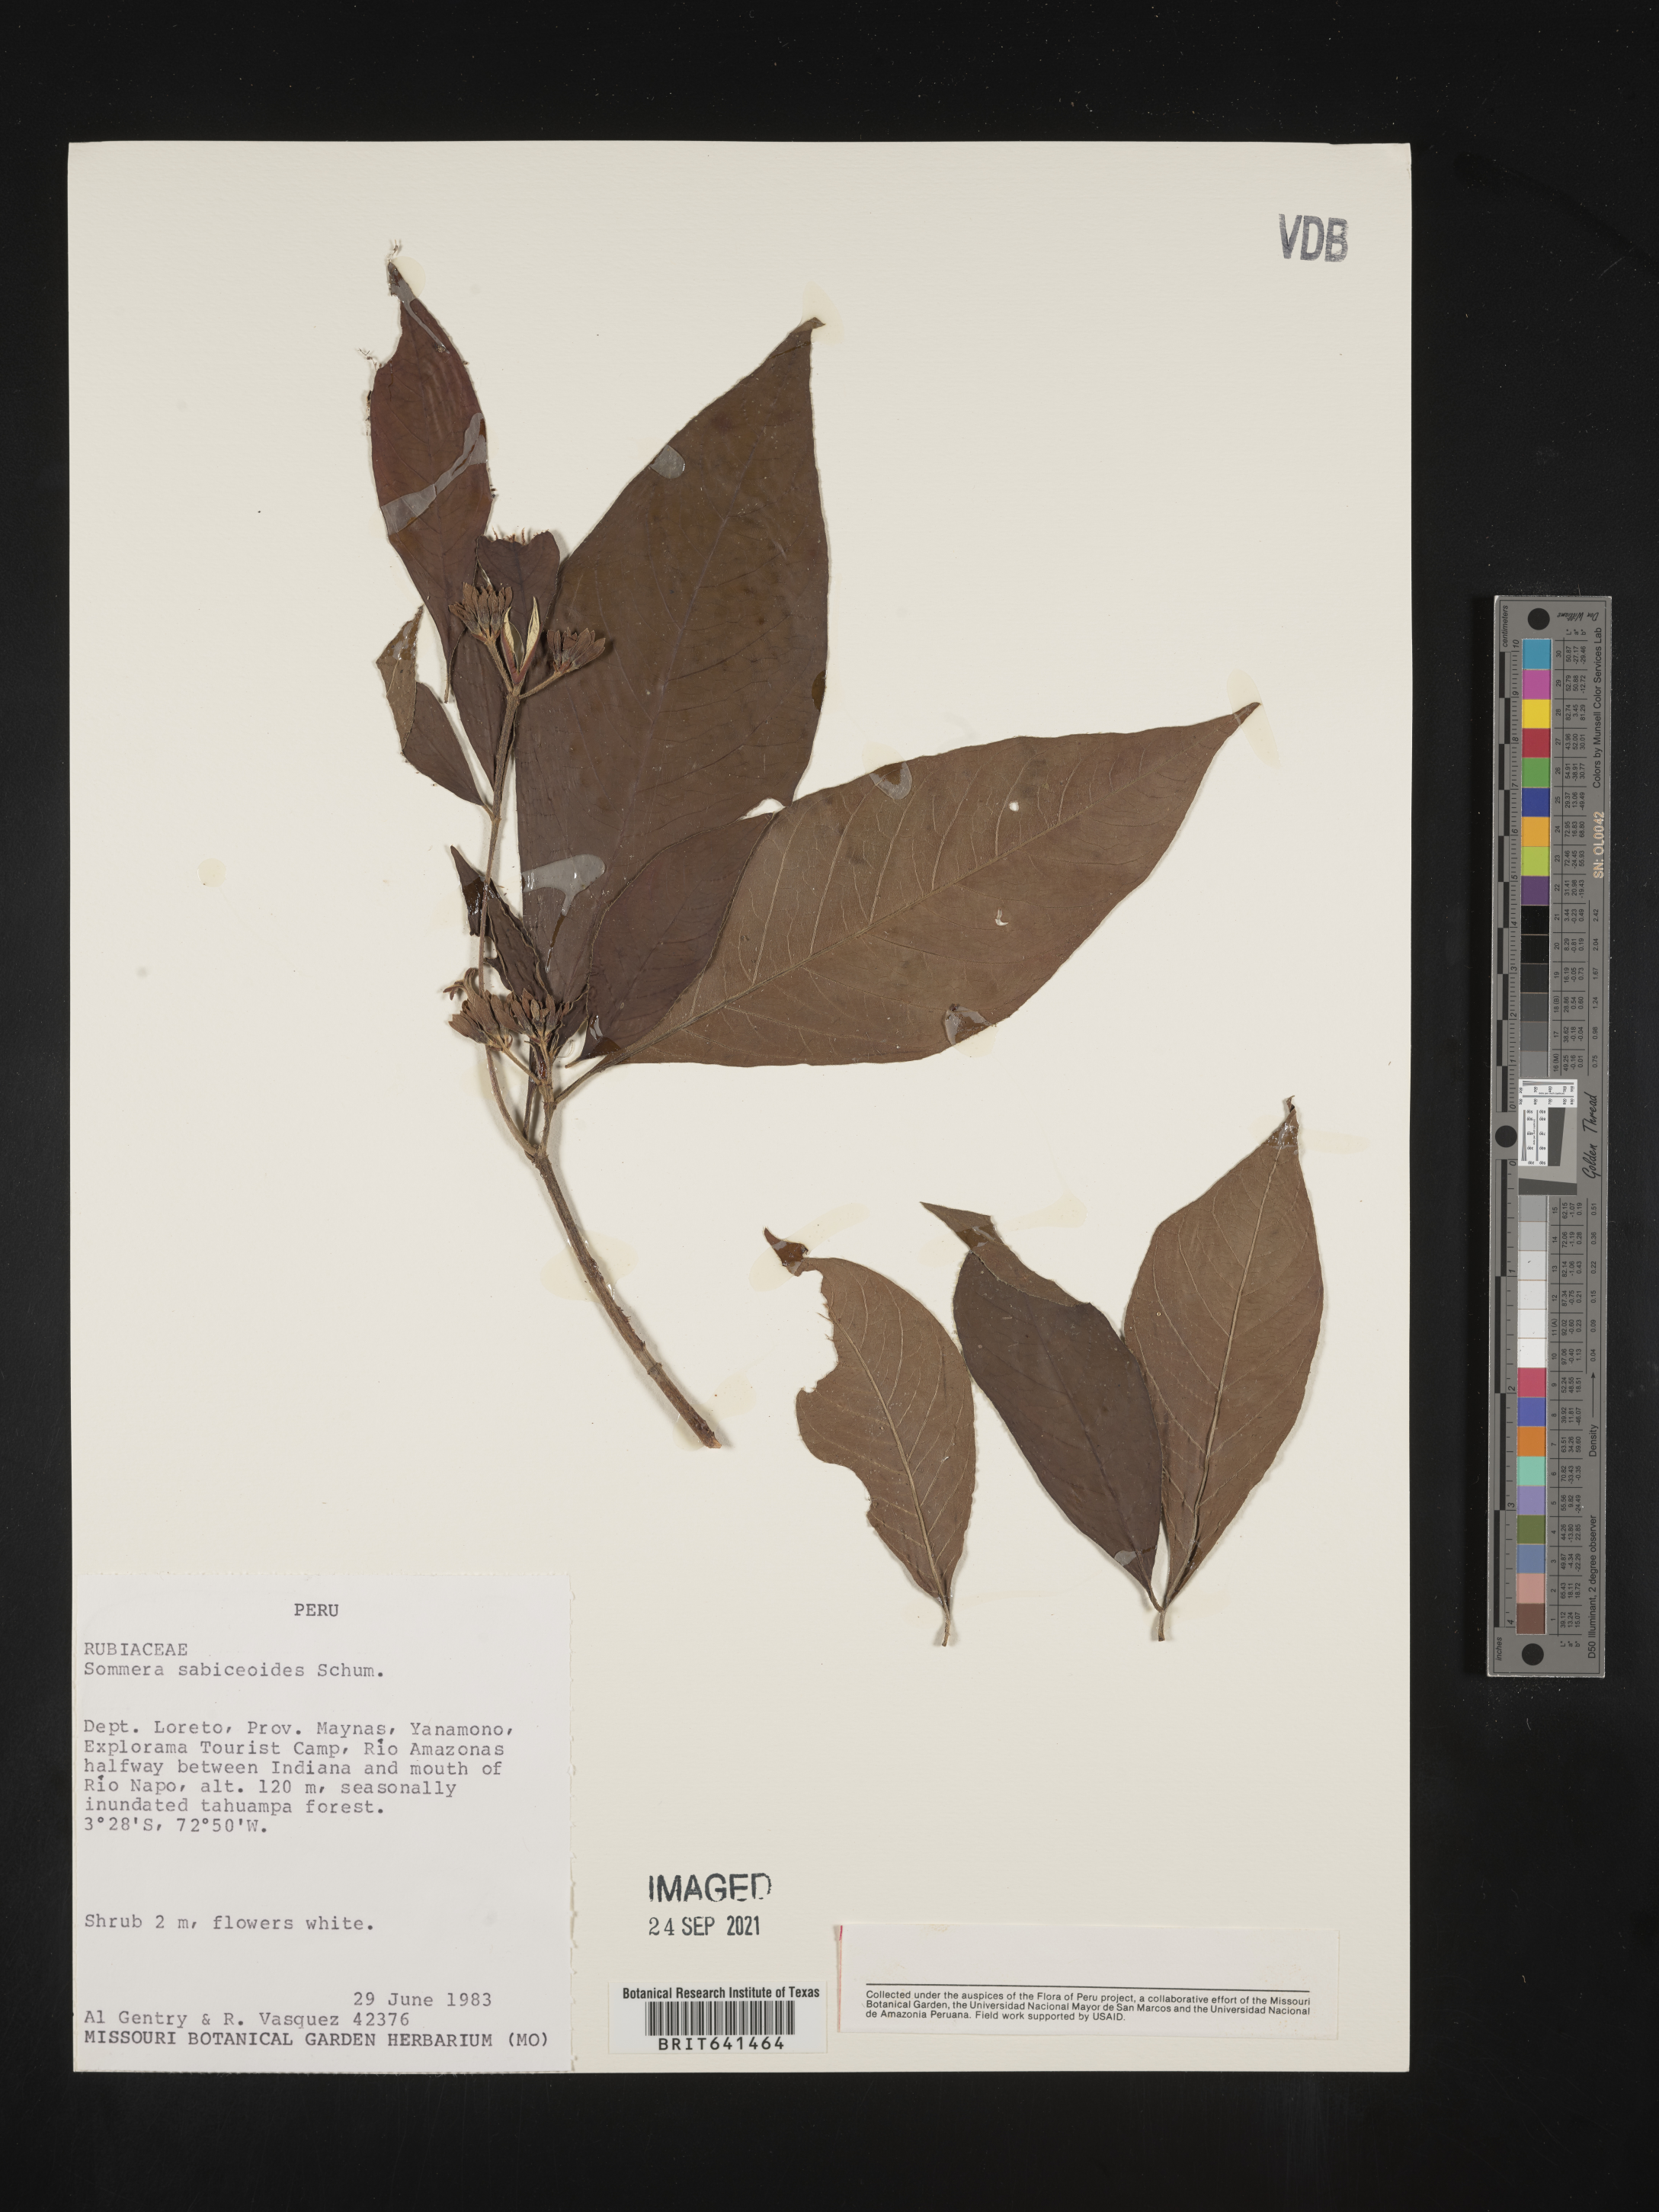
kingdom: Plantae
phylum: Tracheophyta
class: Magnoliopsida
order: Gentianales
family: Rubiaceae
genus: Psychotria
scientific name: Psychotria
